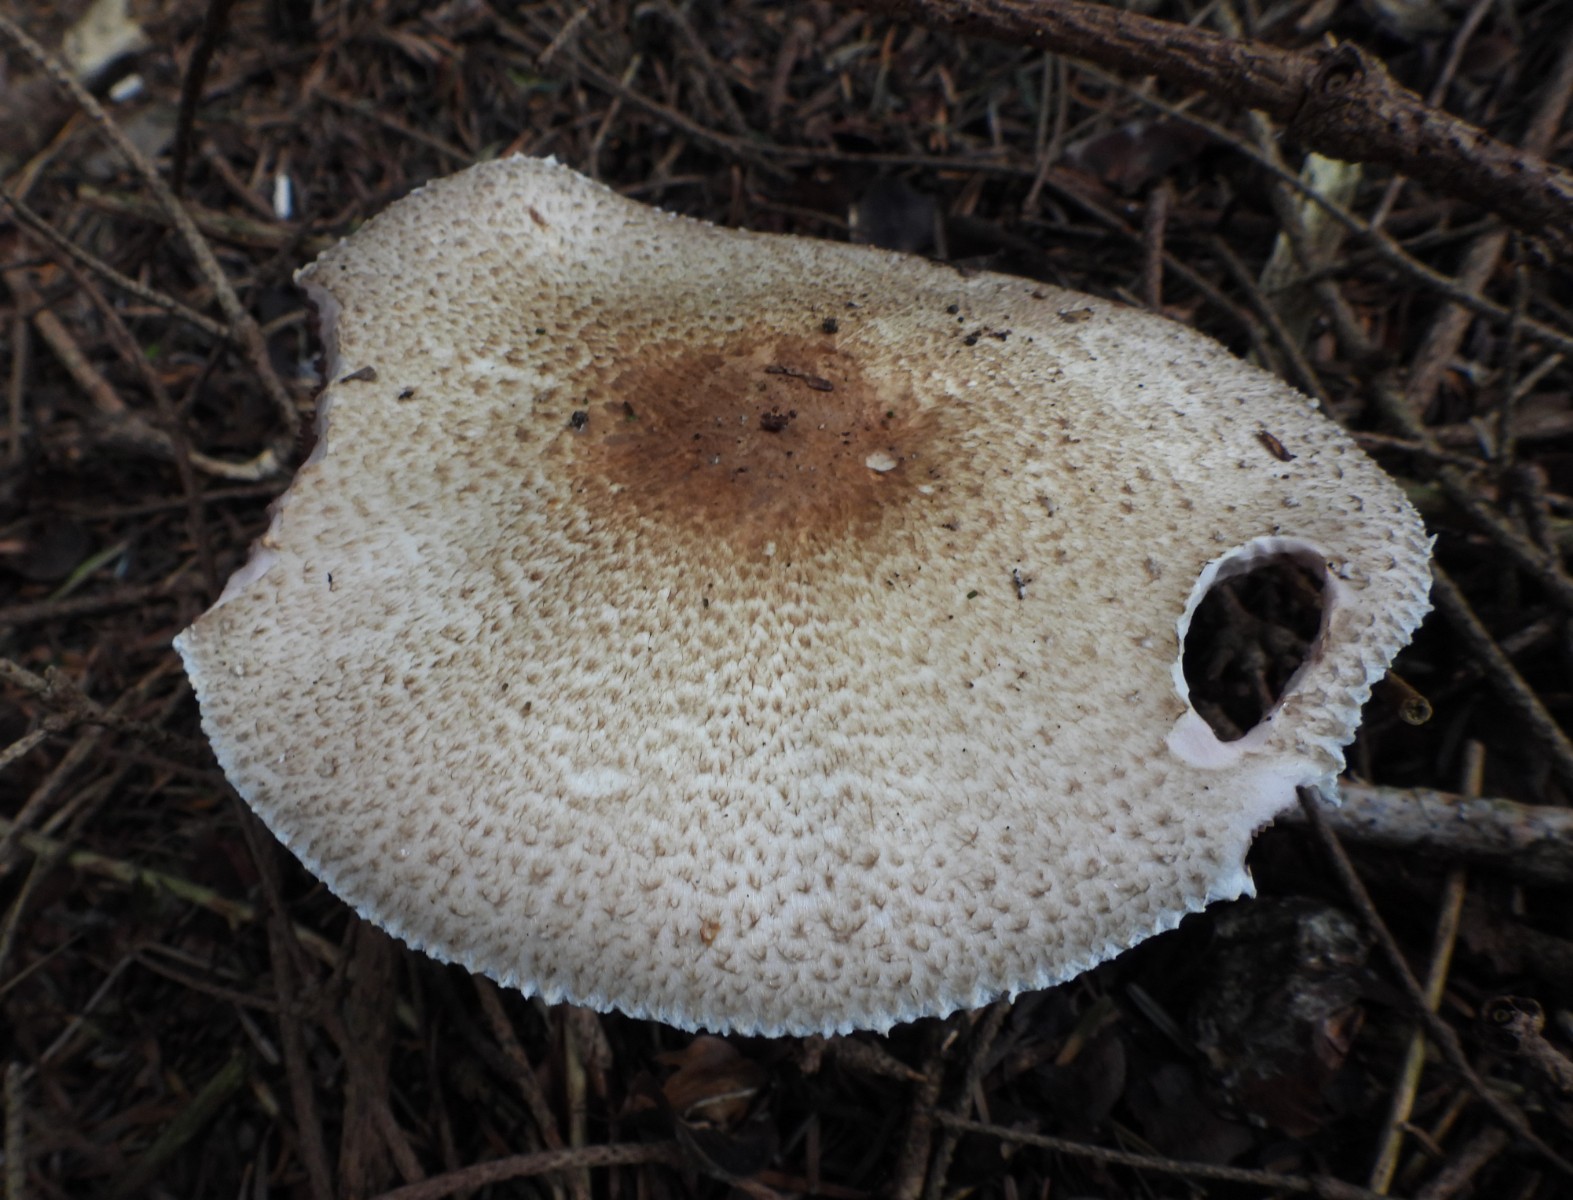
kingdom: Fungi
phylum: Basidiomycota
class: Agaricomycetes
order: Agaricales
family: Agaricaceae
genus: Agaricus
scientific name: Agaricus augustus
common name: prægtig champignon
